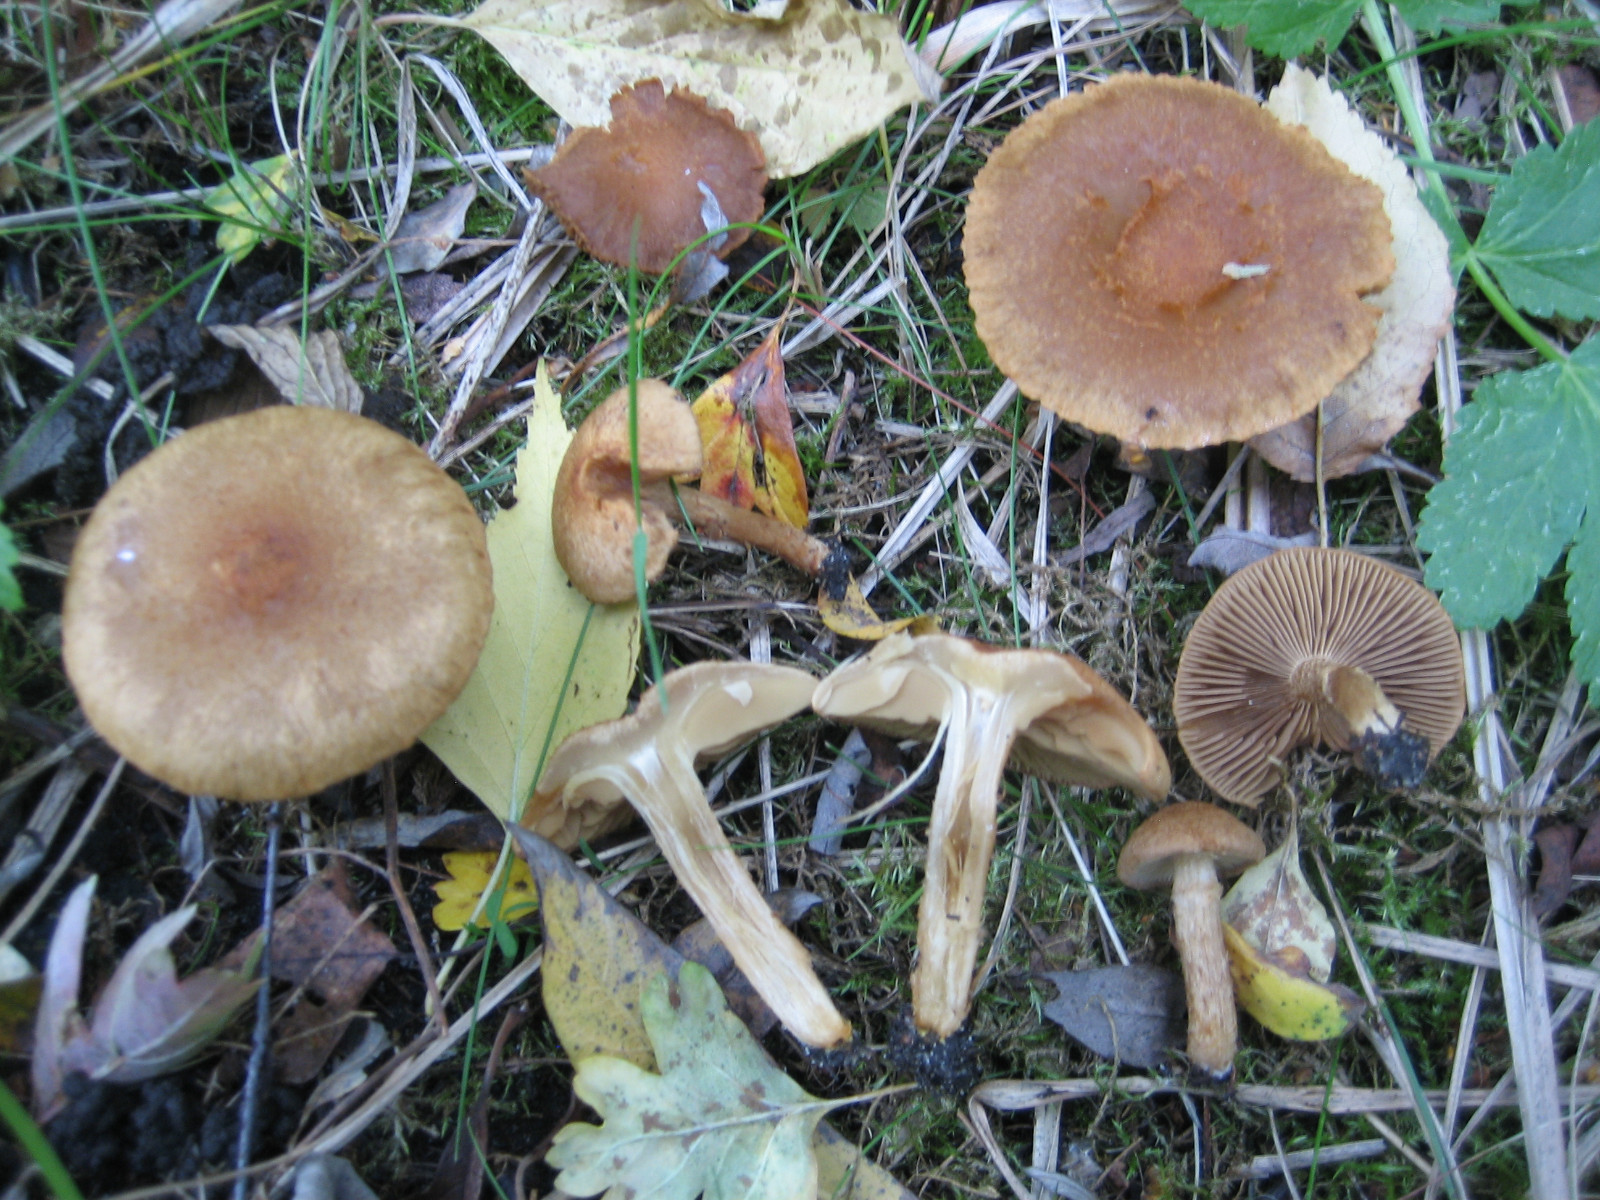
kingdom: Fungi
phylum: Basidiomycota
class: Agaricomycetes
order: Agaricales
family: Inocybaceae
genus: Mallocybe
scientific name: Mallocybe plebeia
